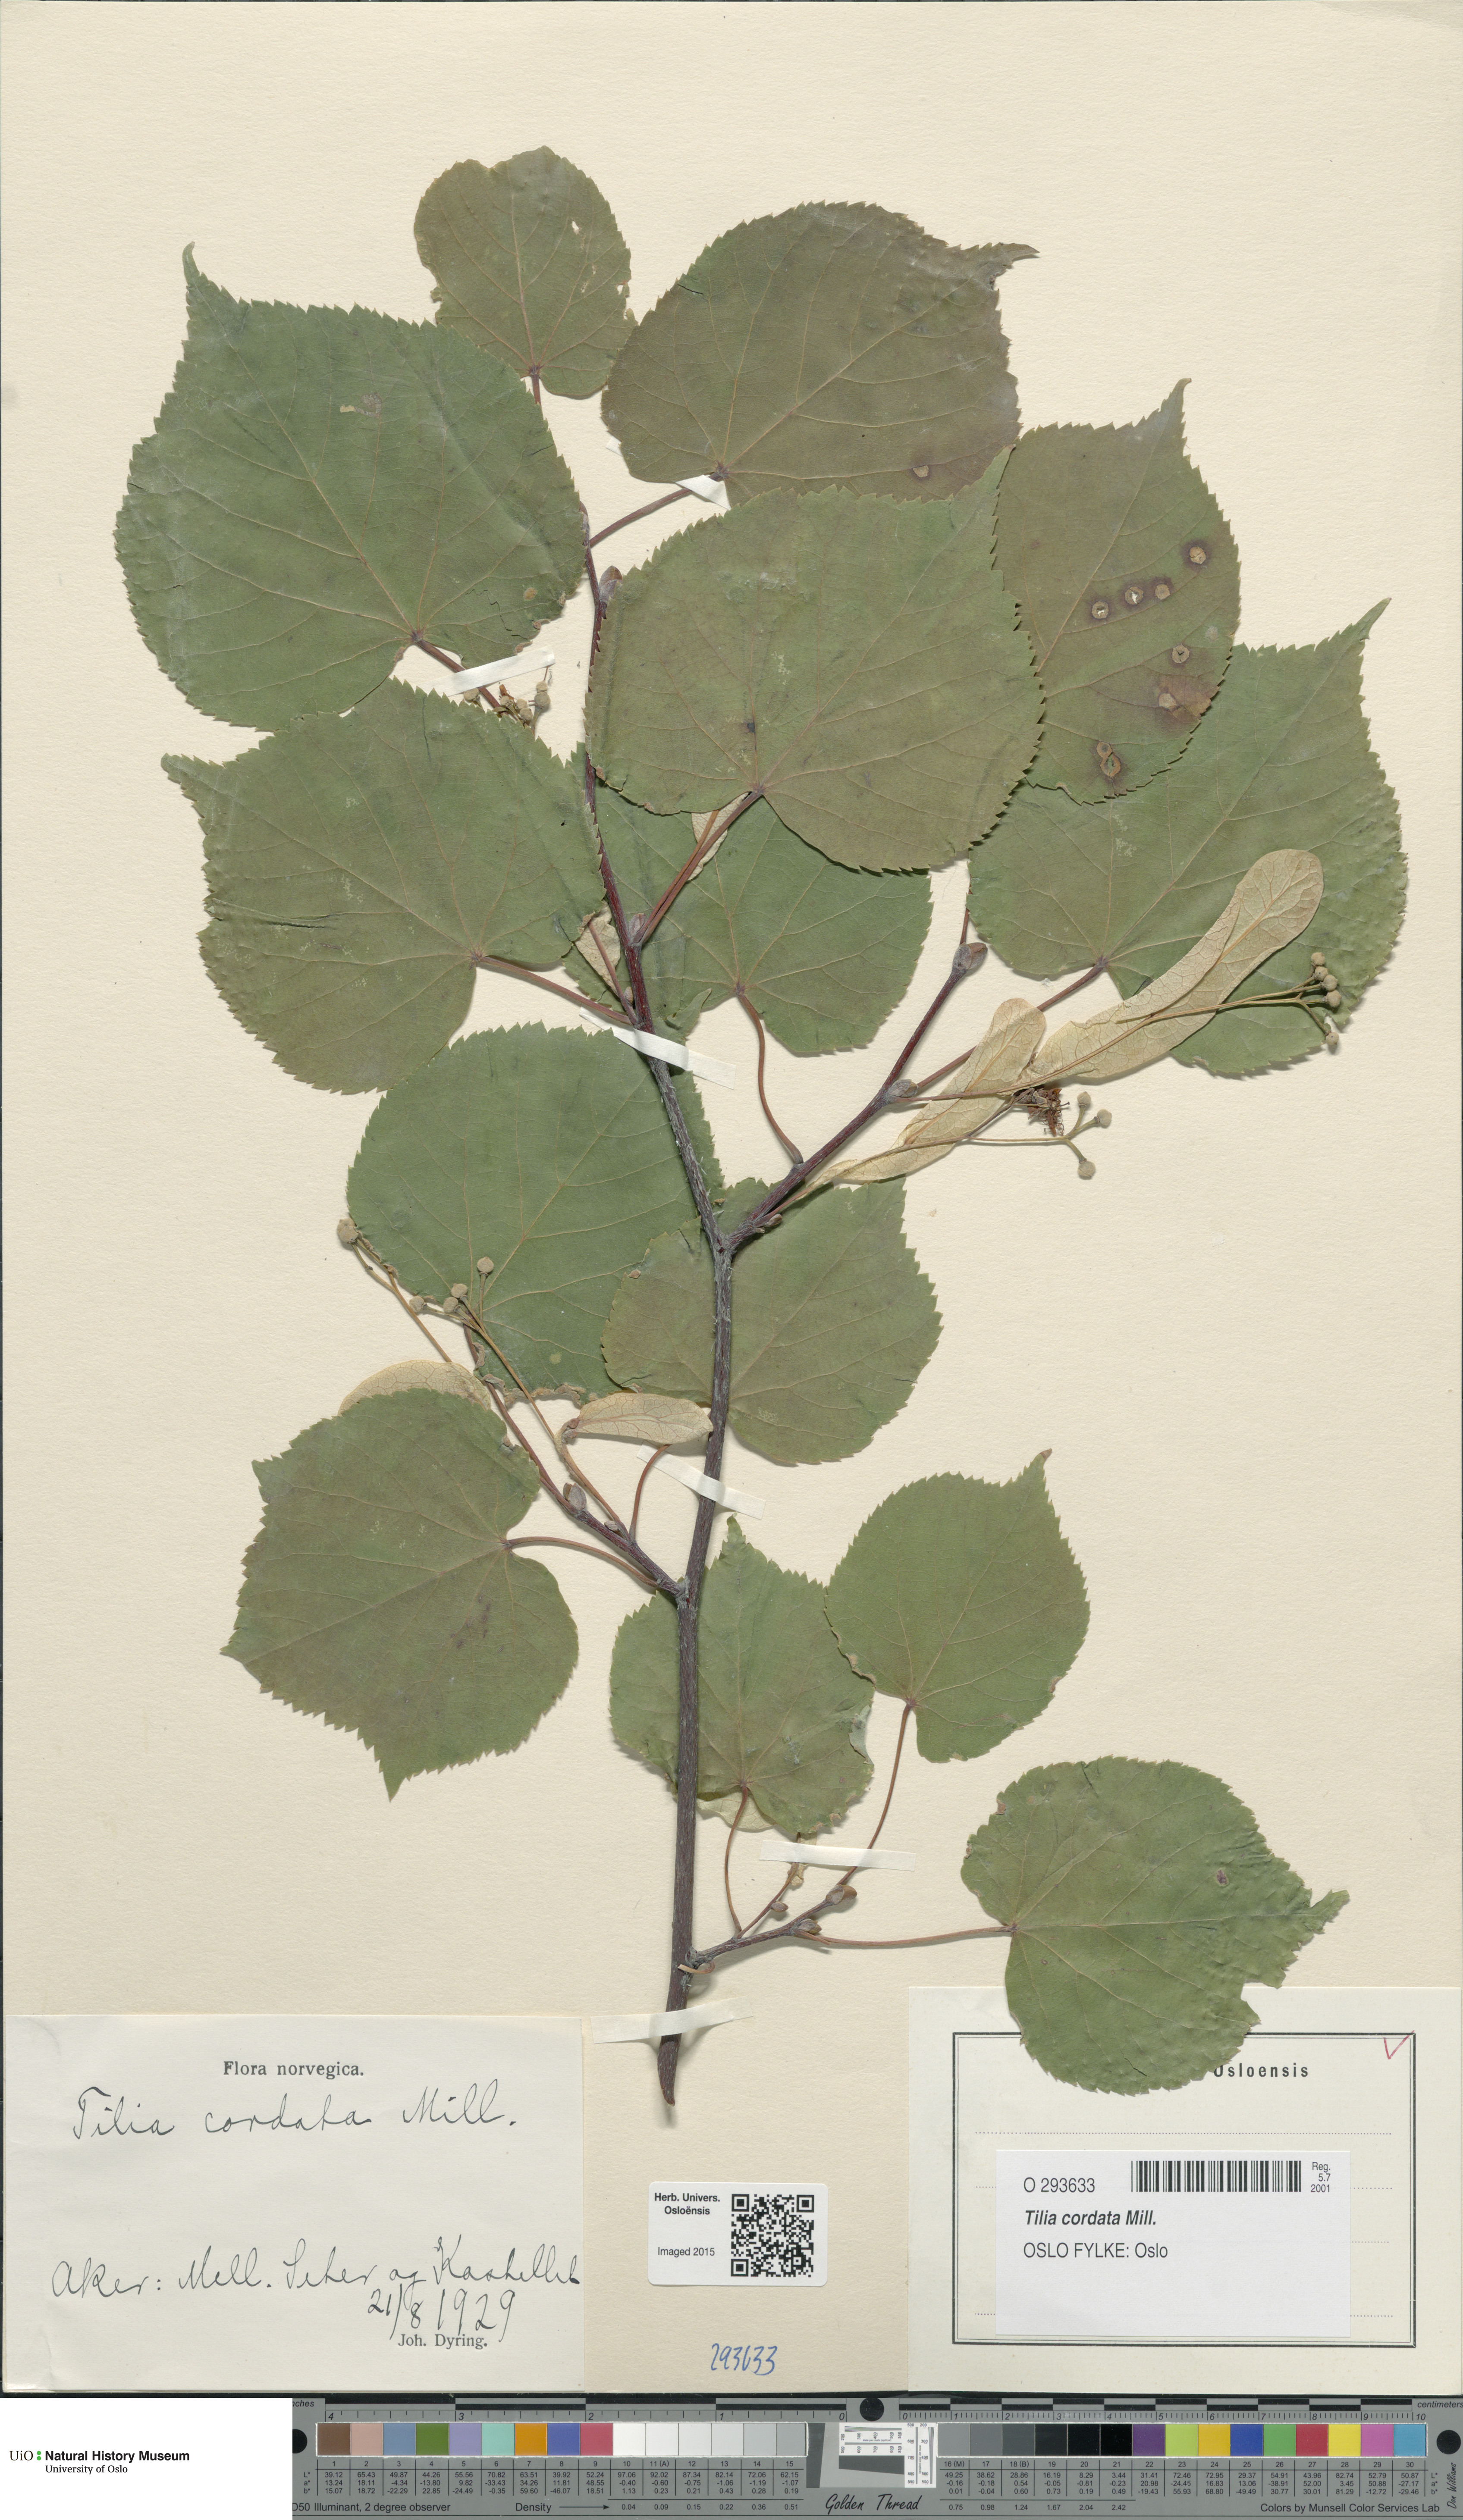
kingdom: Plantae
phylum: Tracheophyta
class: Magnoliopsida
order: Malvales
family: Malvaceae
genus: Tilia
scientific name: Tilia cordata
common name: Small-leaved lime
